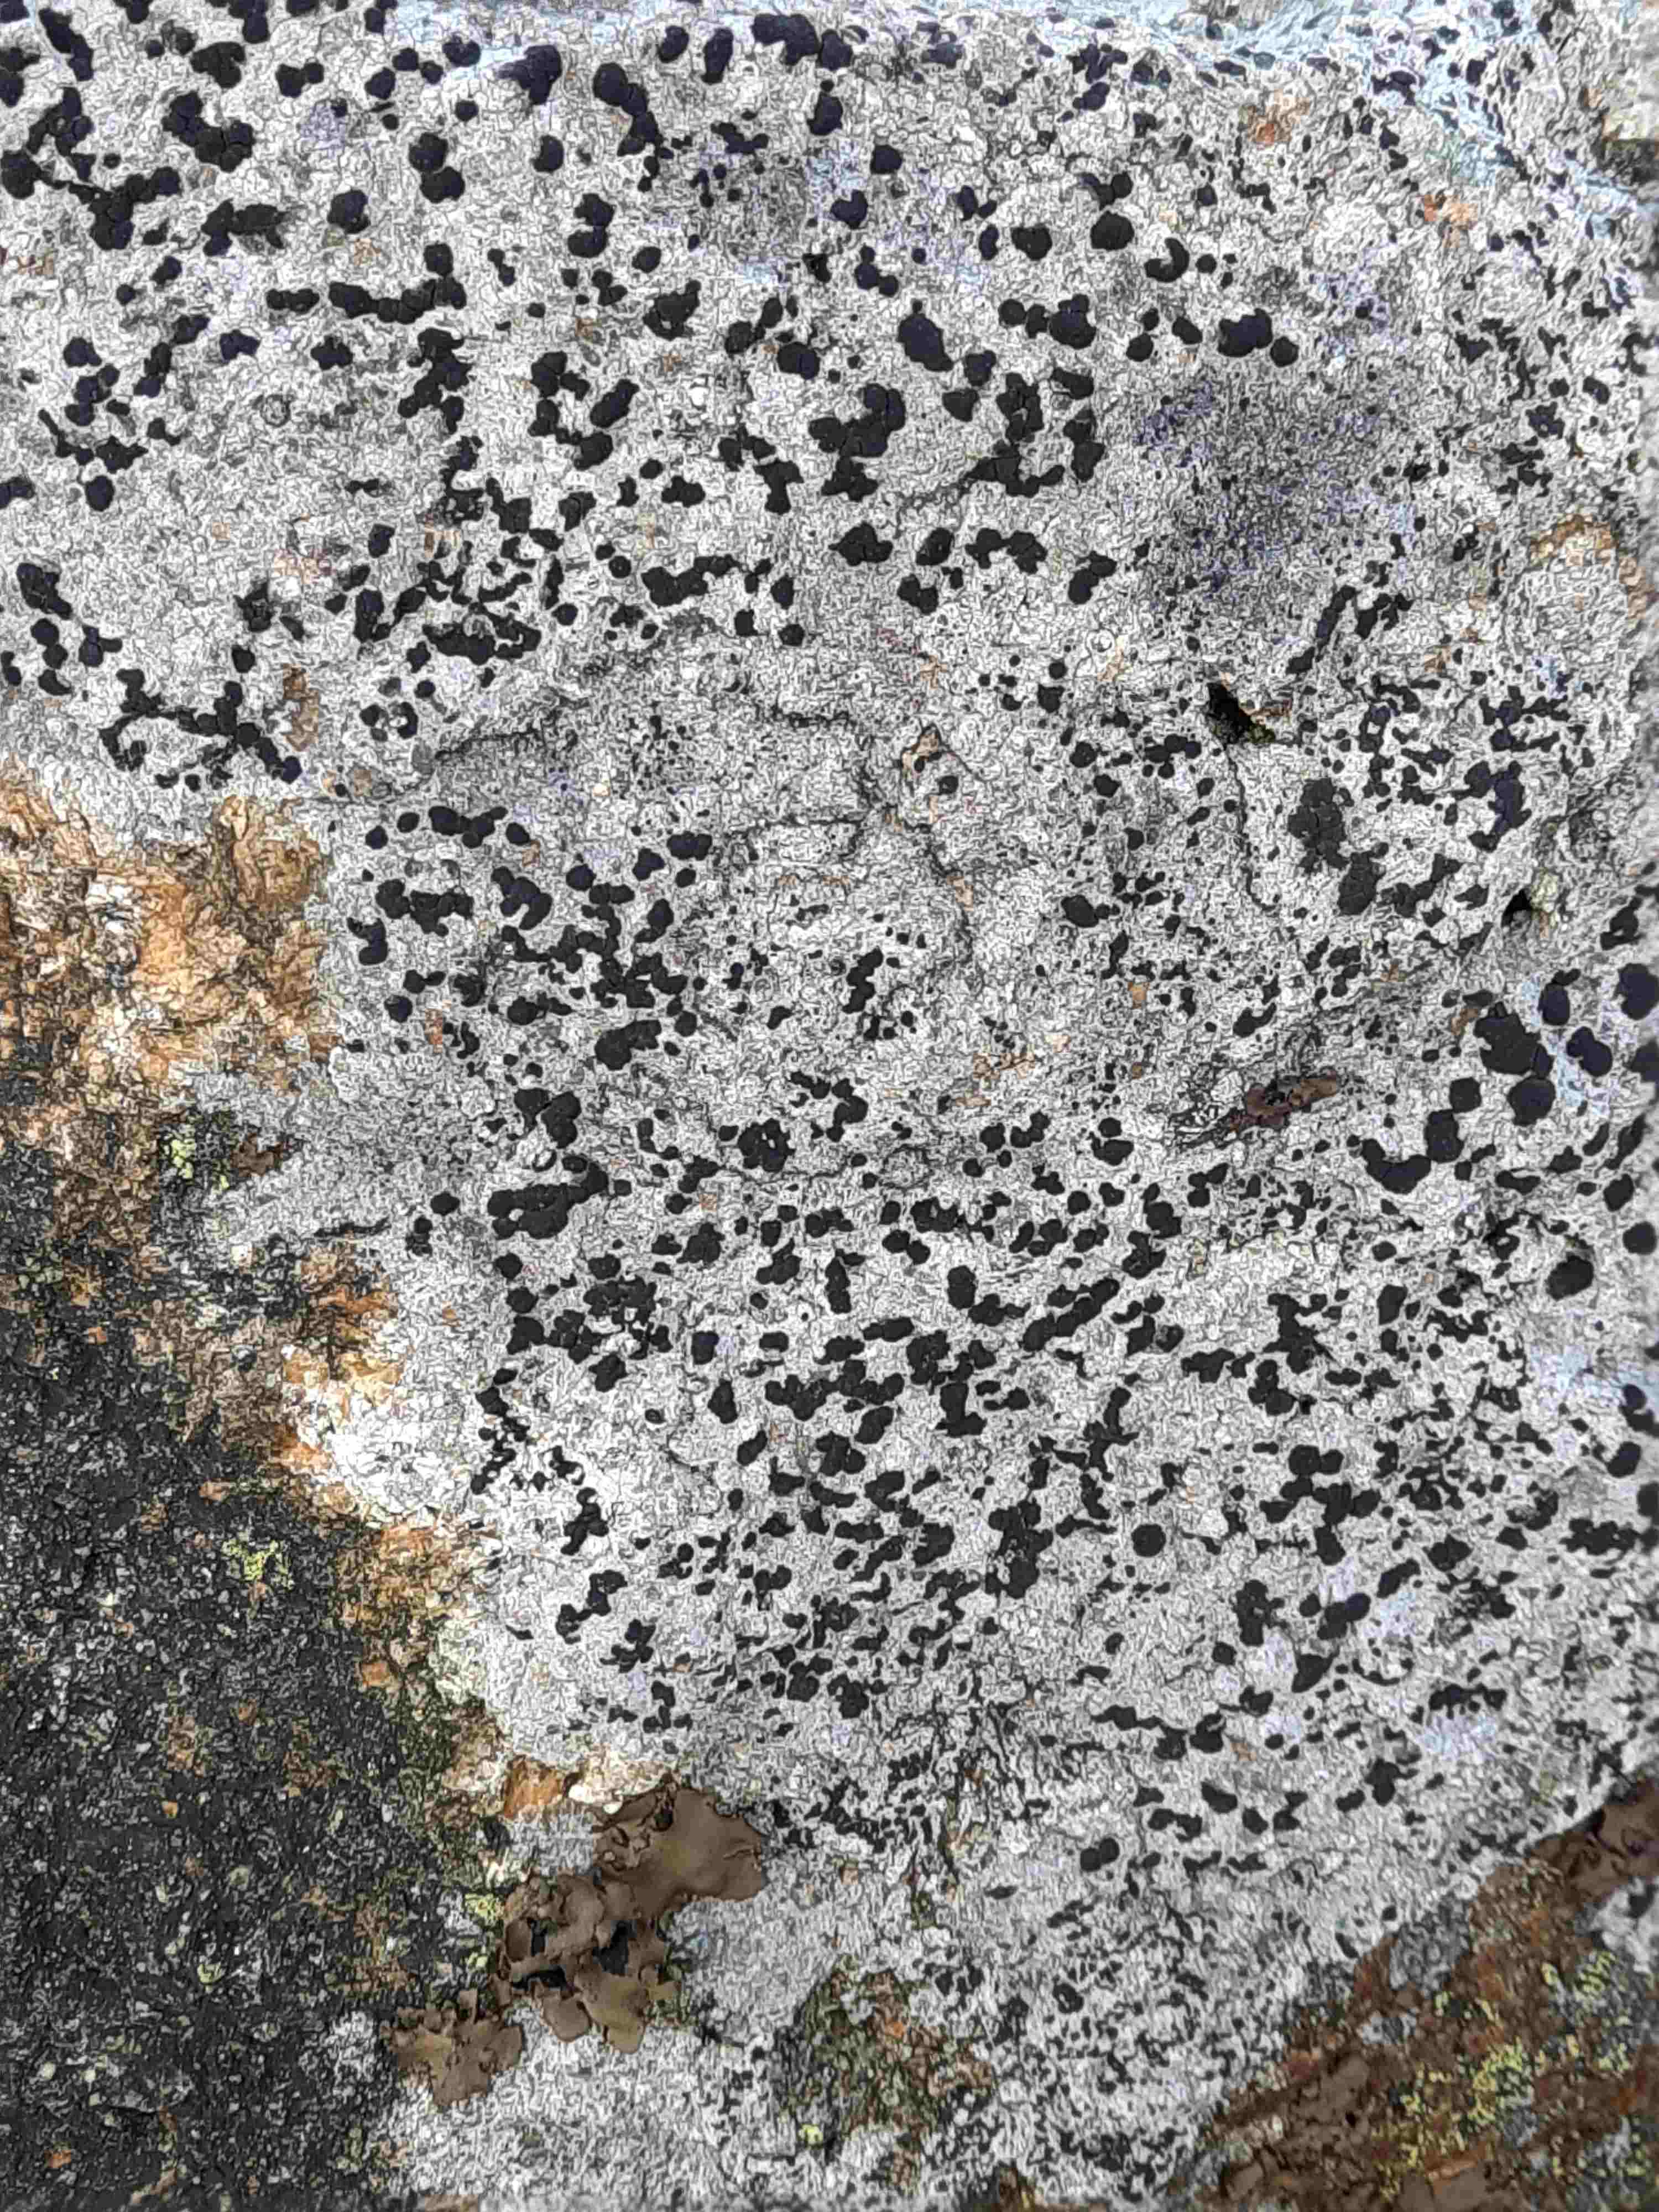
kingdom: Fungi
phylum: Ascomycota
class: Lecanoromycetes
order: Lecanorales
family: Parmeliaceae
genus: Lichen
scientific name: Lichen
